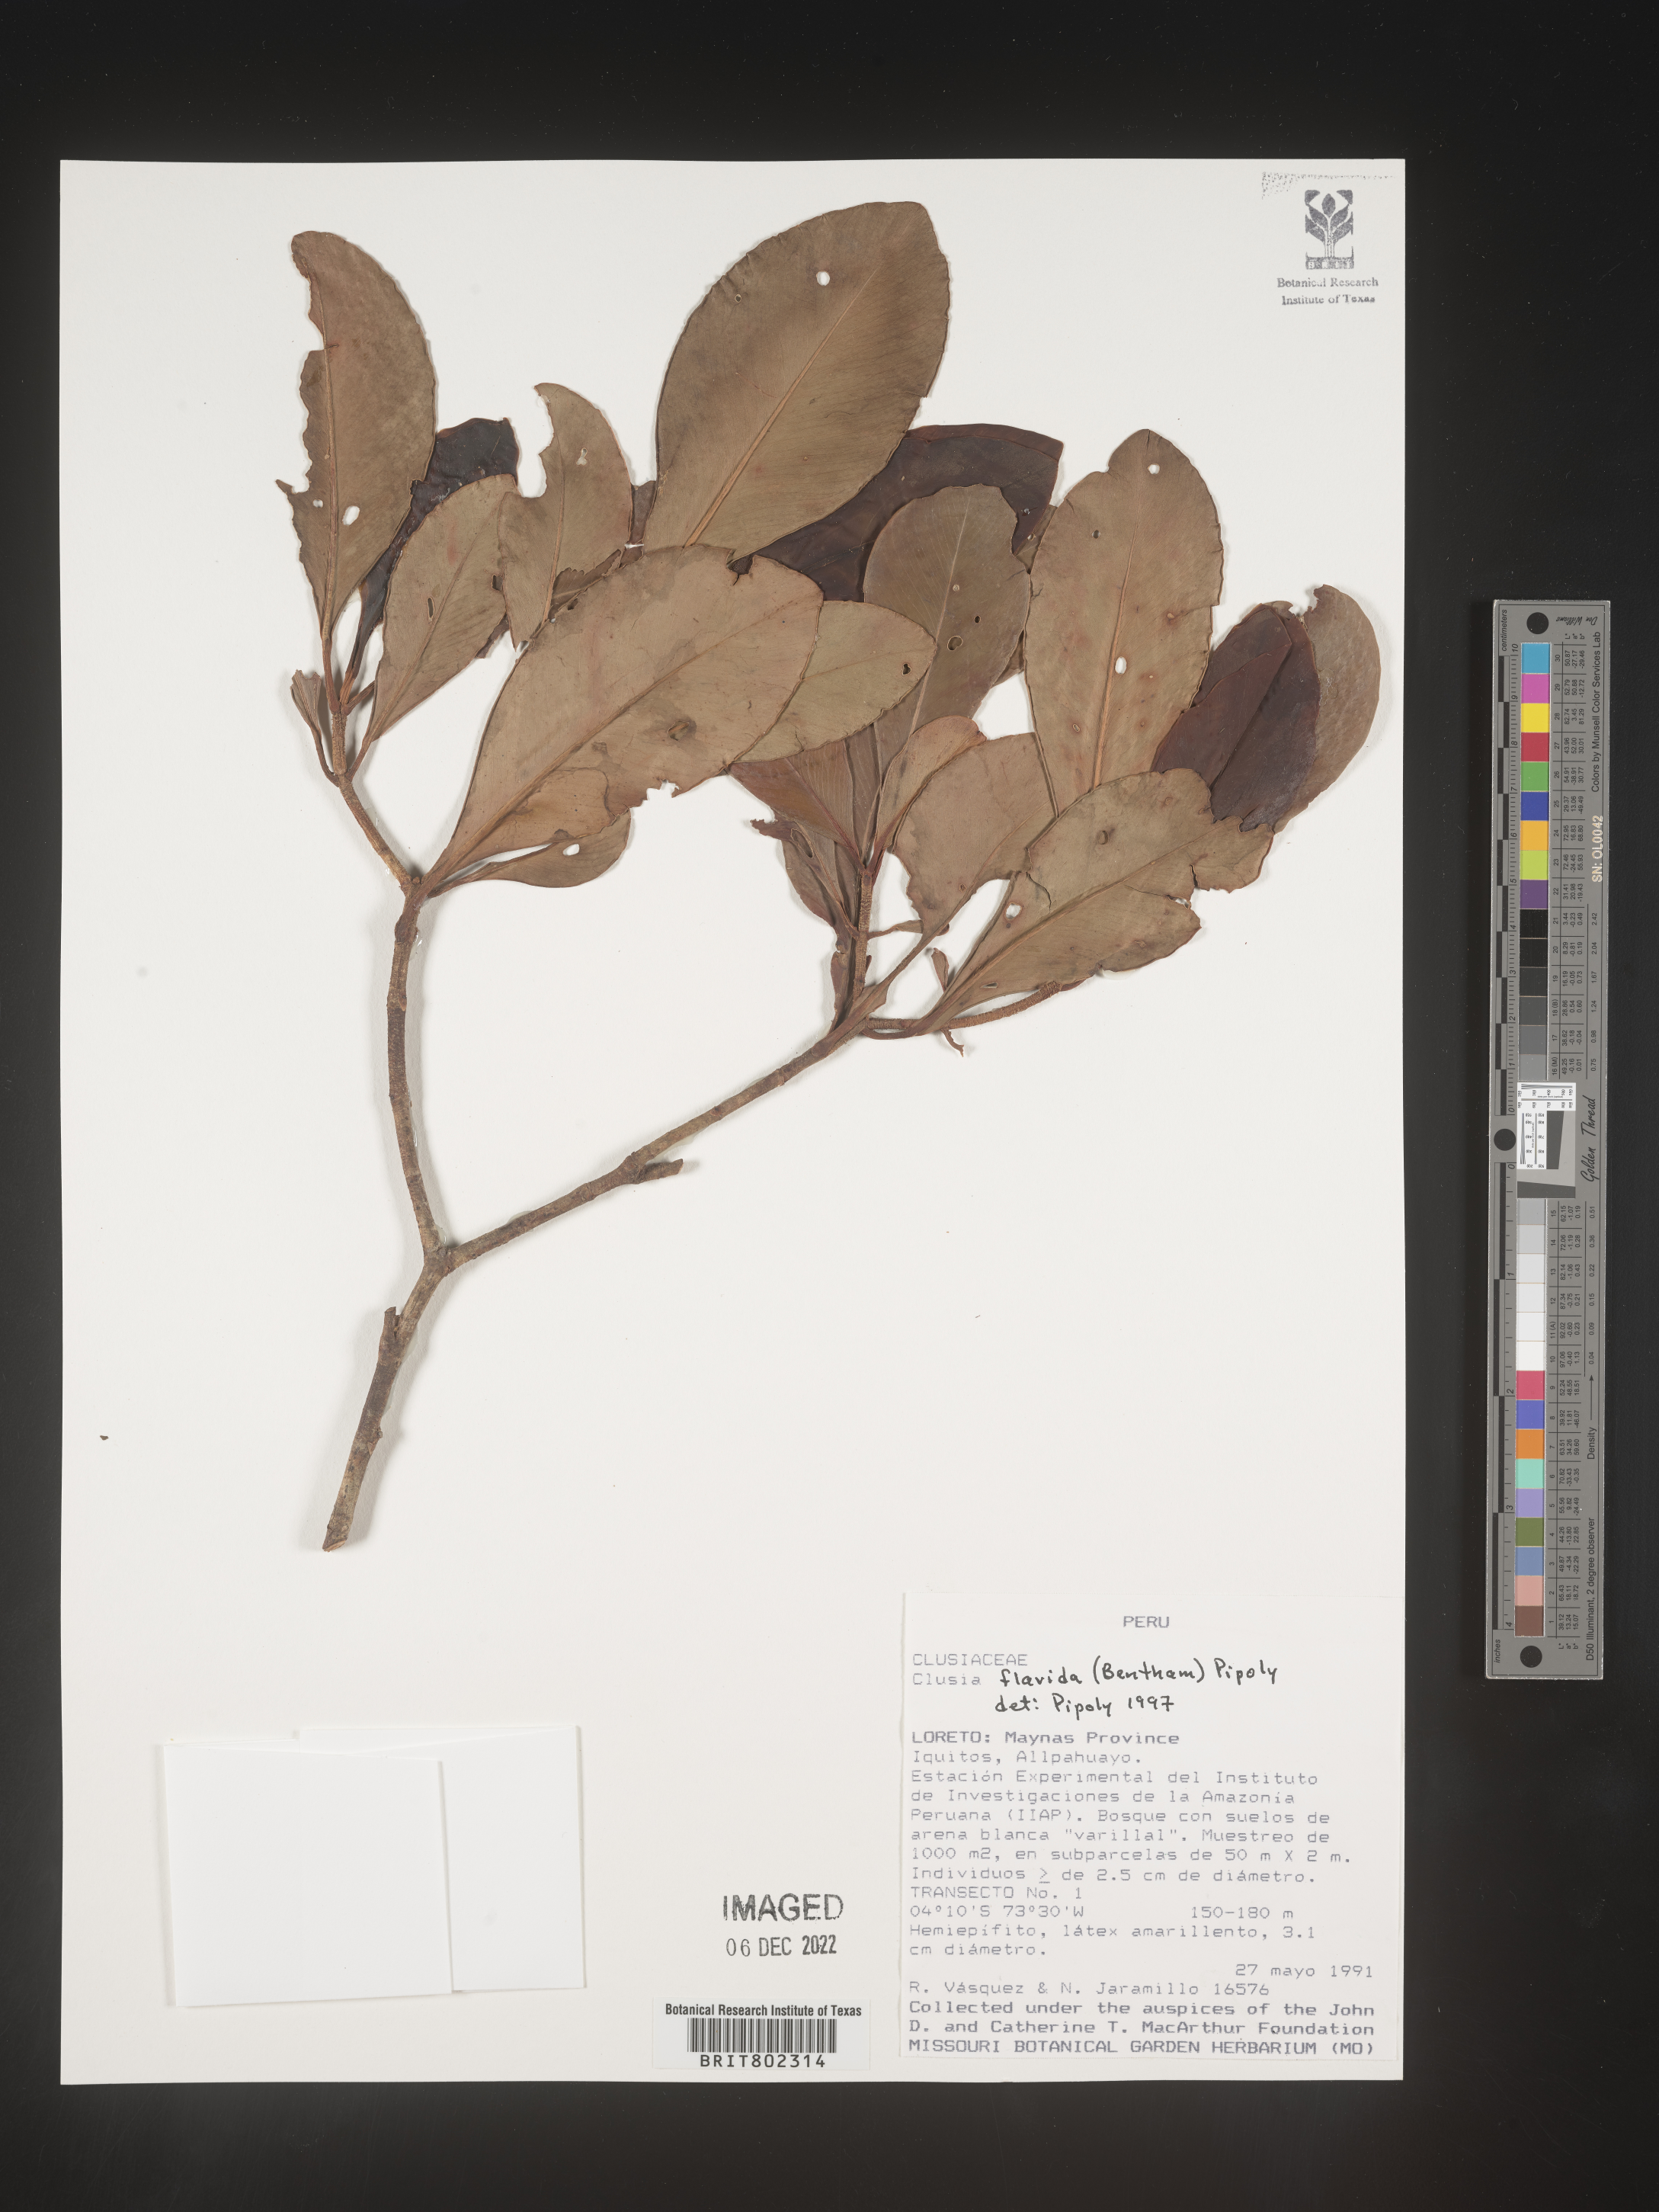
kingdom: Plantae
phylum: Tracheophyta
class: Magnoliopsida
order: Malpighiales
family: Clusiaceae
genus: Clusia
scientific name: Clusia flavida
